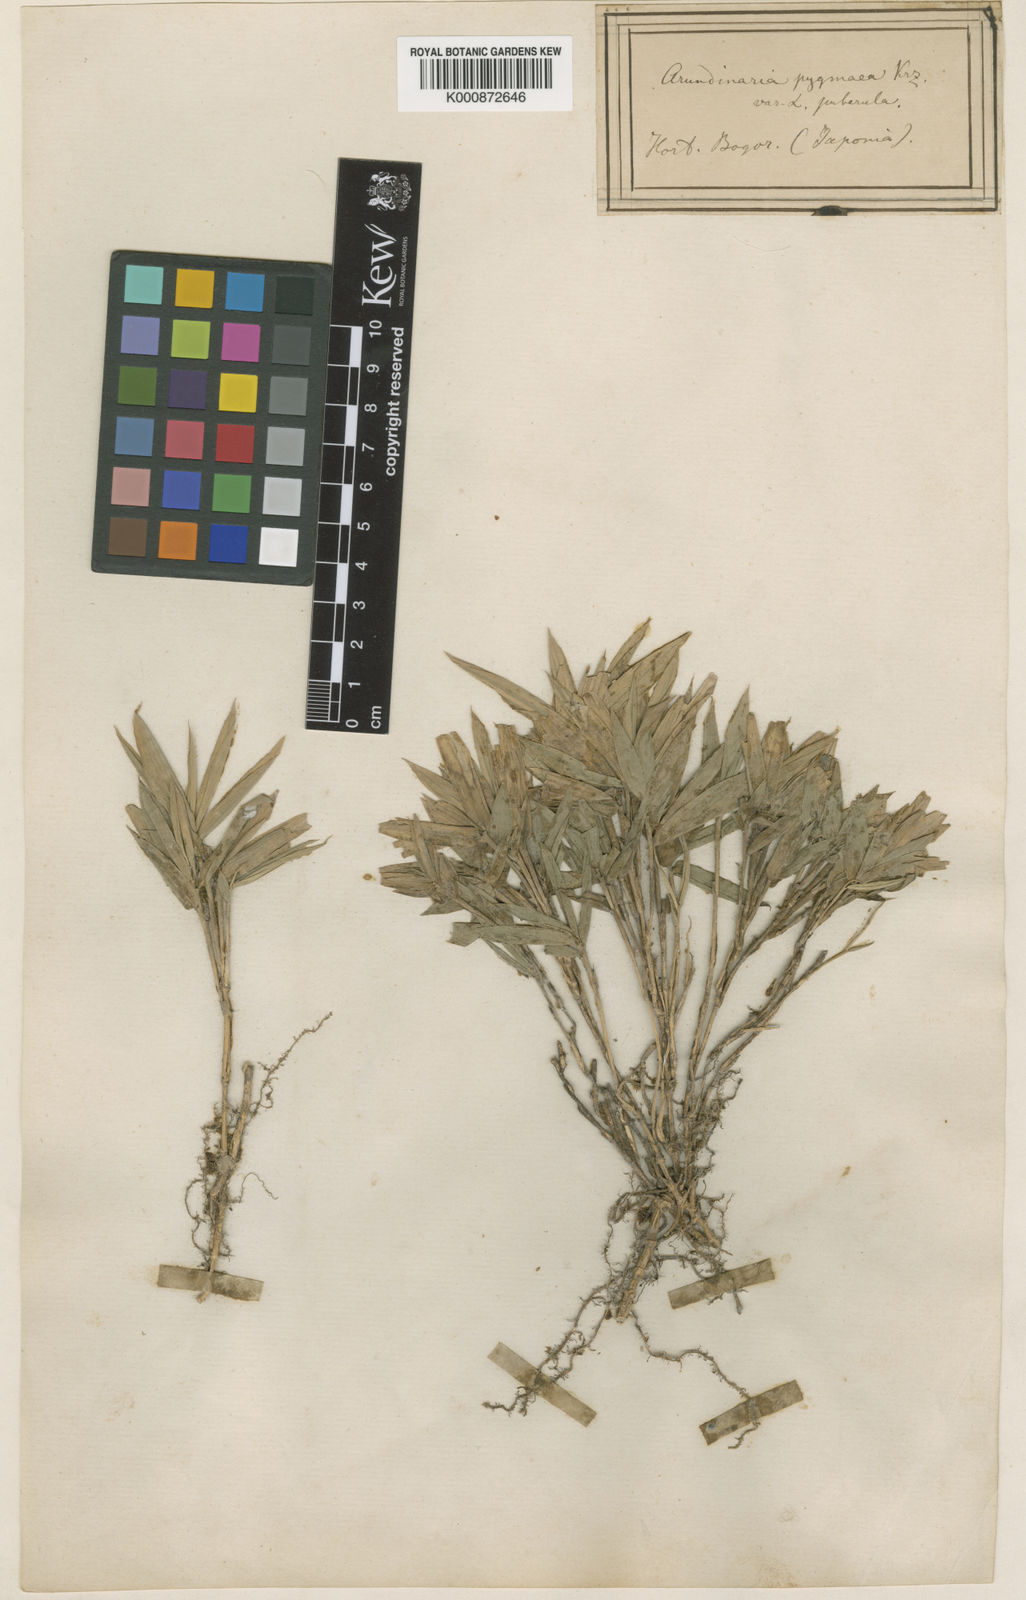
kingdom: Plantae
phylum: Tracheophyta
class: Liliopsida
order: Poales
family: Poaceae
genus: Arundinaria
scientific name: Arundinaria
